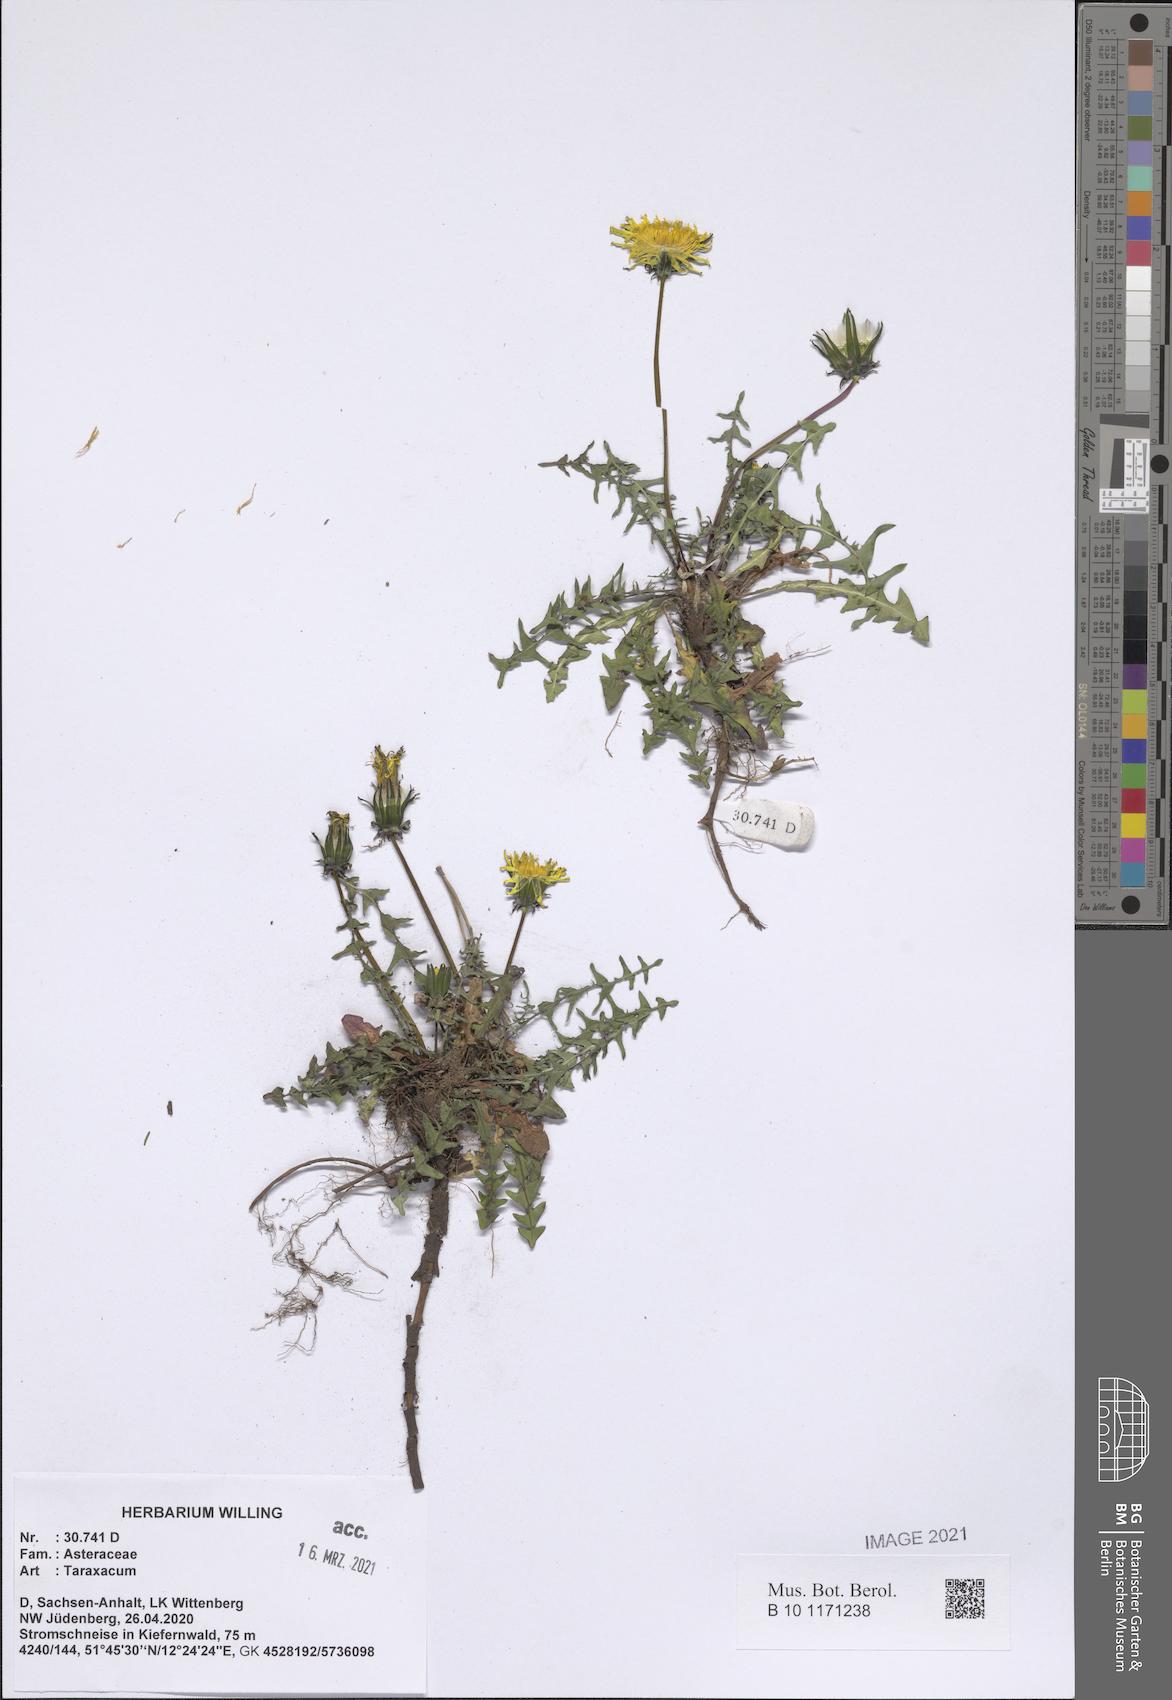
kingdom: Plantae
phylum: Tracheophyta
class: Magnoliopsida
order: Asterales
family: Asteraceae
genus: Taraxacum
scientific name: Taraxacum
